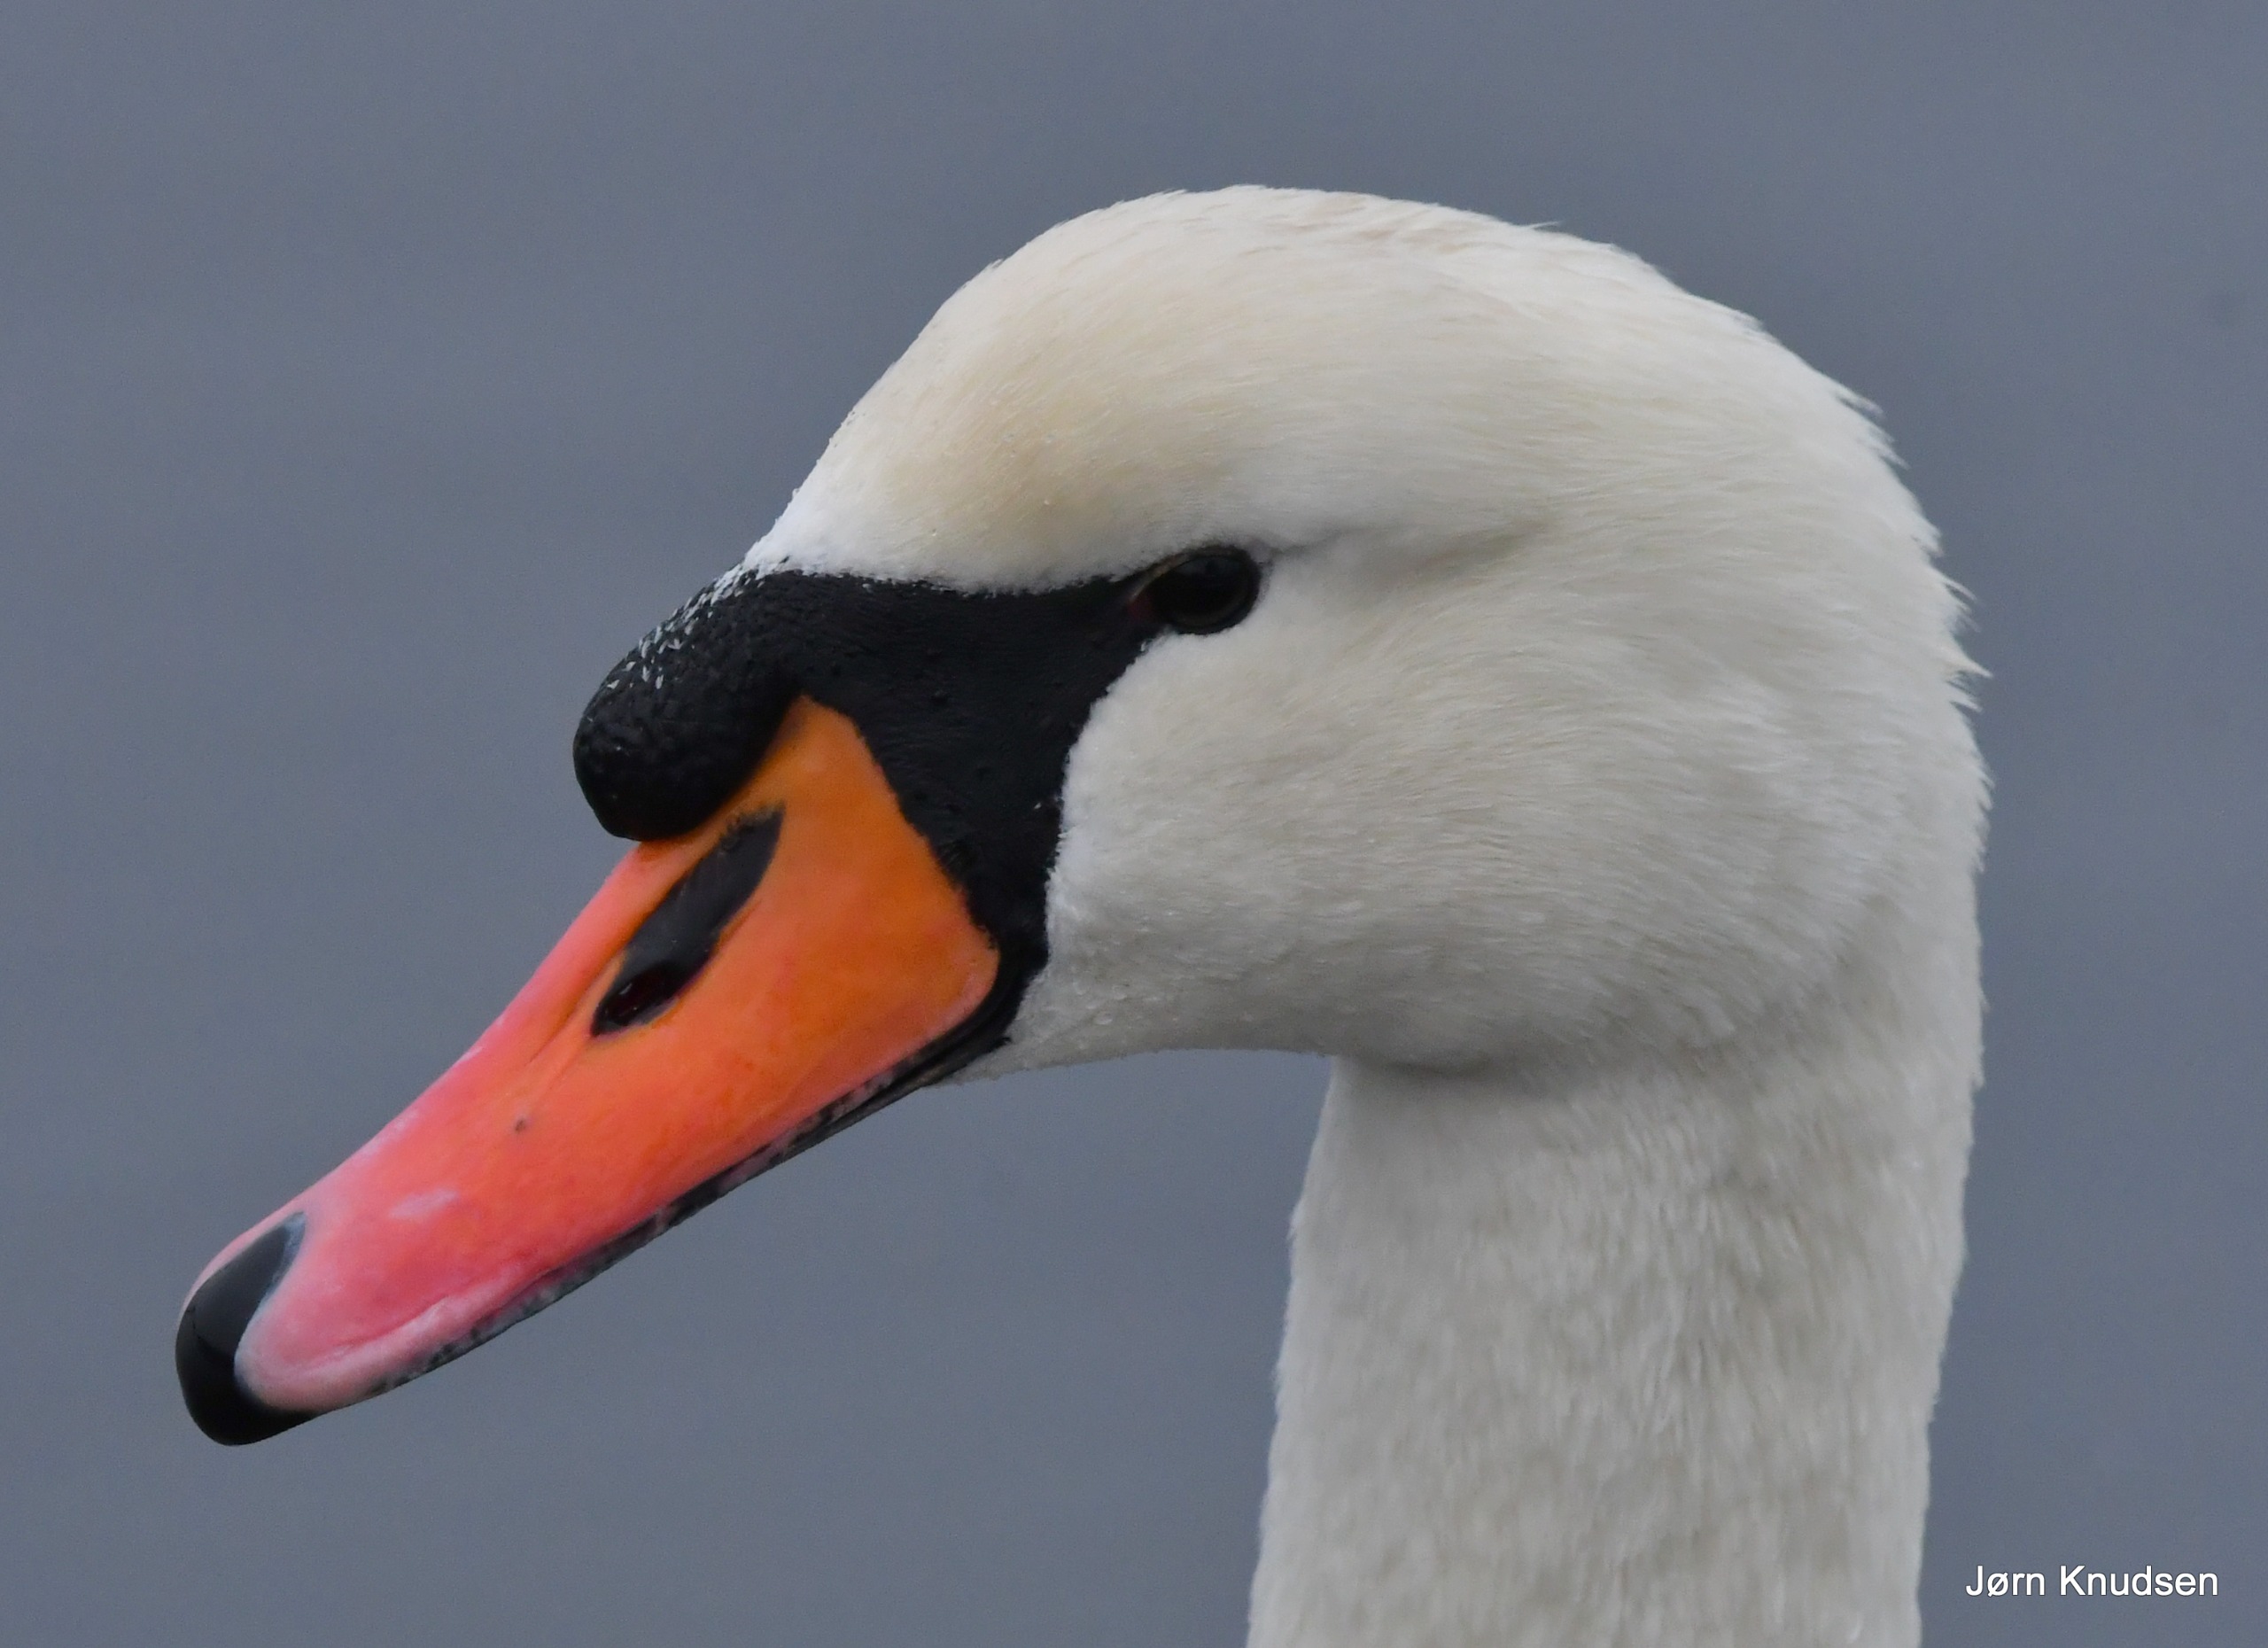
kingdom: Animalia
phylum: Chordata
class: Aves
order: Anseriformes
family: Anatidae
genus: Cygnus
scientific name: Cygnus olor
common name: Knopsvane
